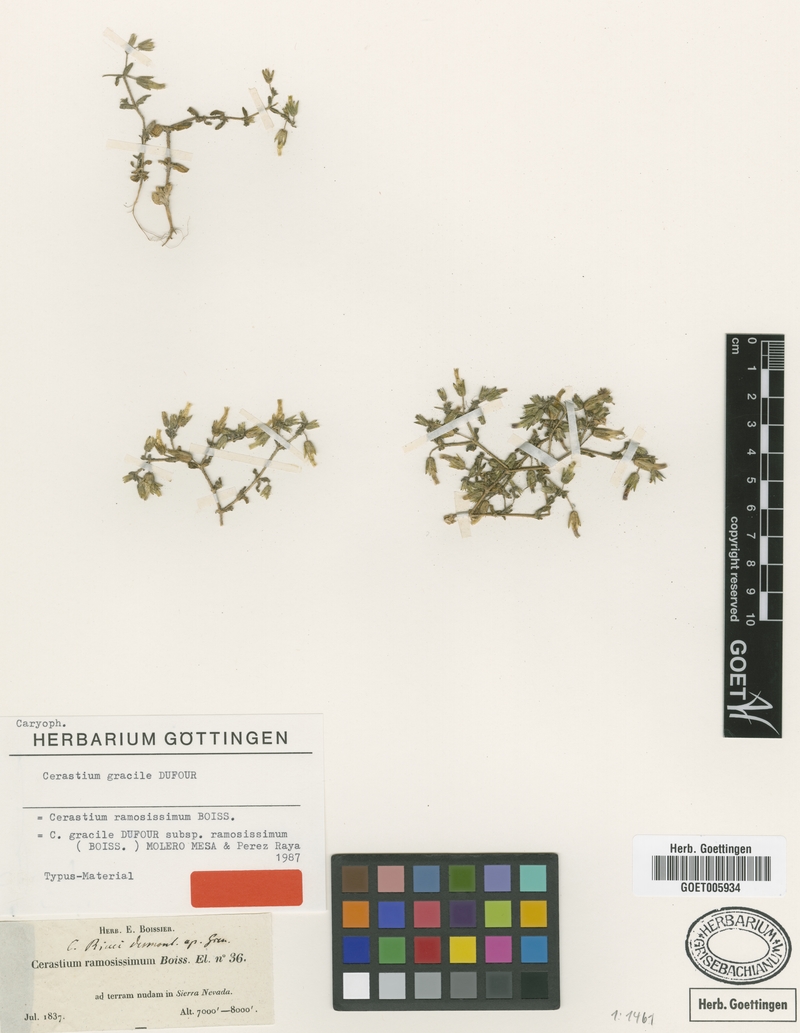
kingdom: Plantae
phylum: Tracheophyta
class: Magnoliopsida
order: Caryophyllales
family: Caryophyllaceae
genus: Cerastium
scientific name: Cerastium gracile
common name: Slender chickweed
